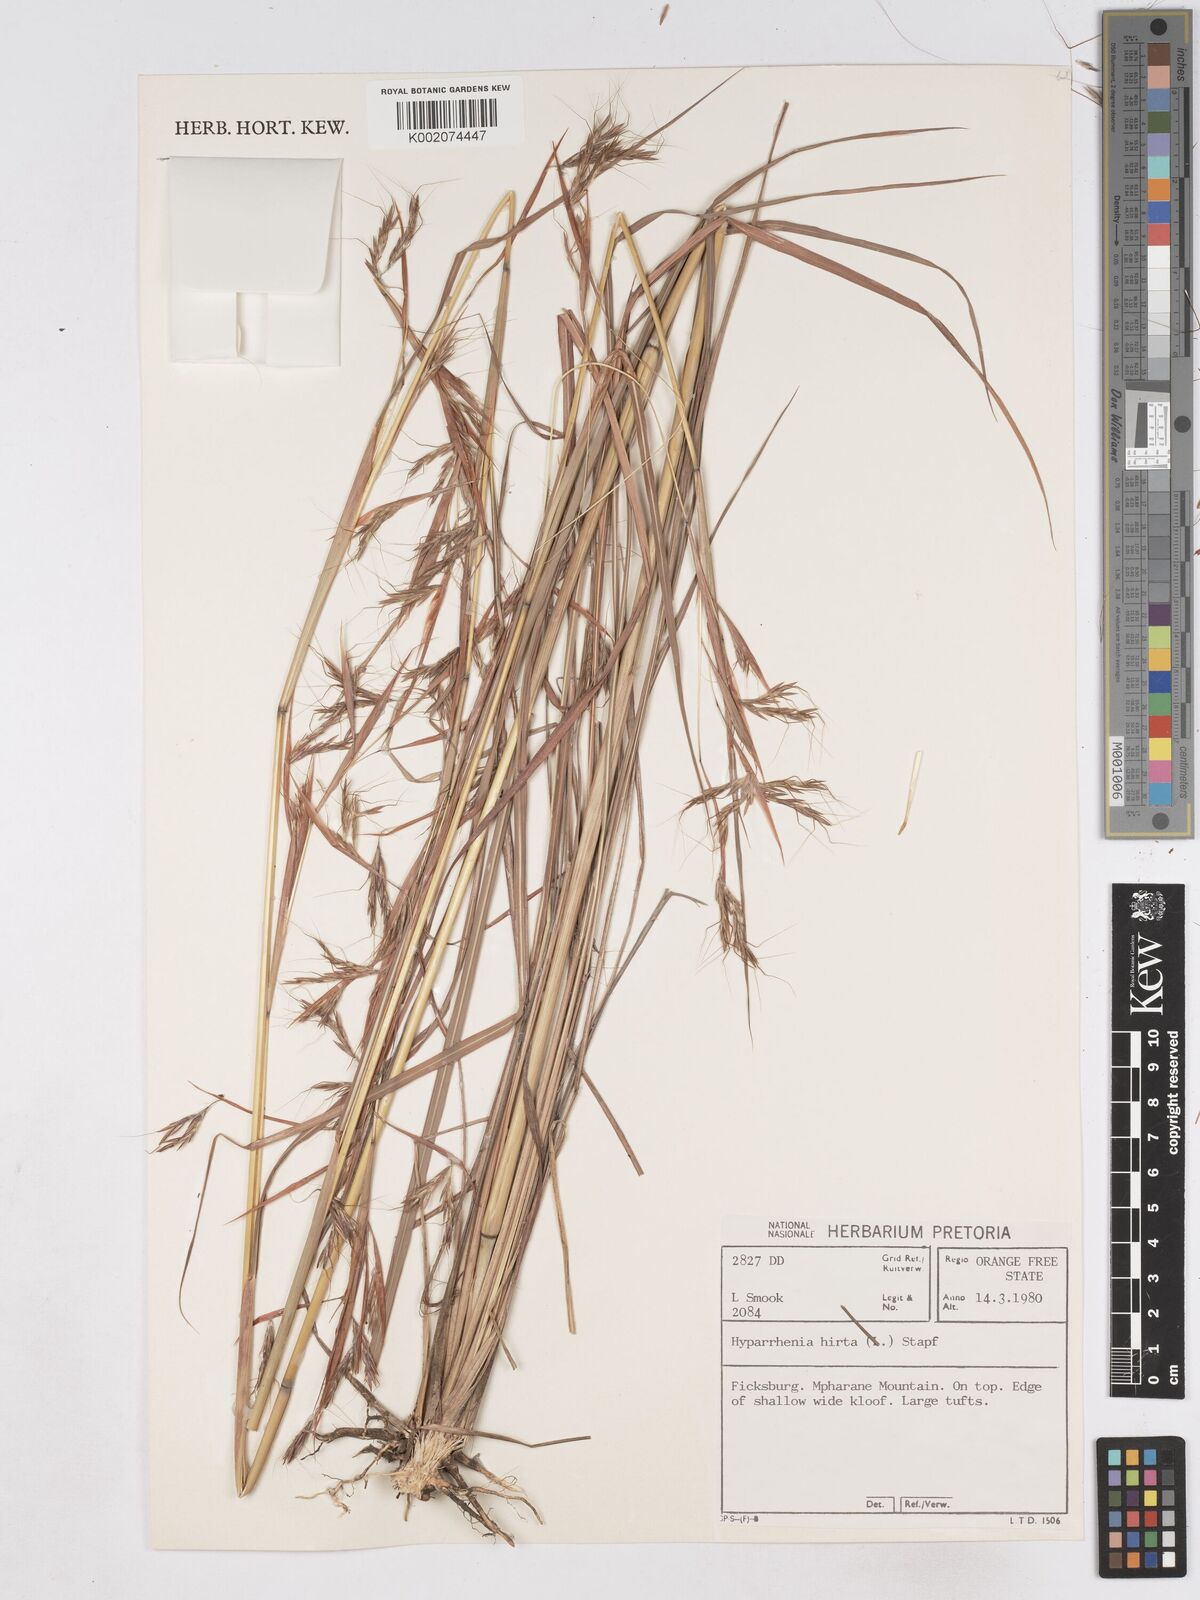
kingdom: Plantae
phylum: Tracheophyta
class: Liliopsida
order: Poales
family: Poaceae
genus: Hyparrhenia
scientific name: Hyparrhenia hirta
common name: Thatching grass
